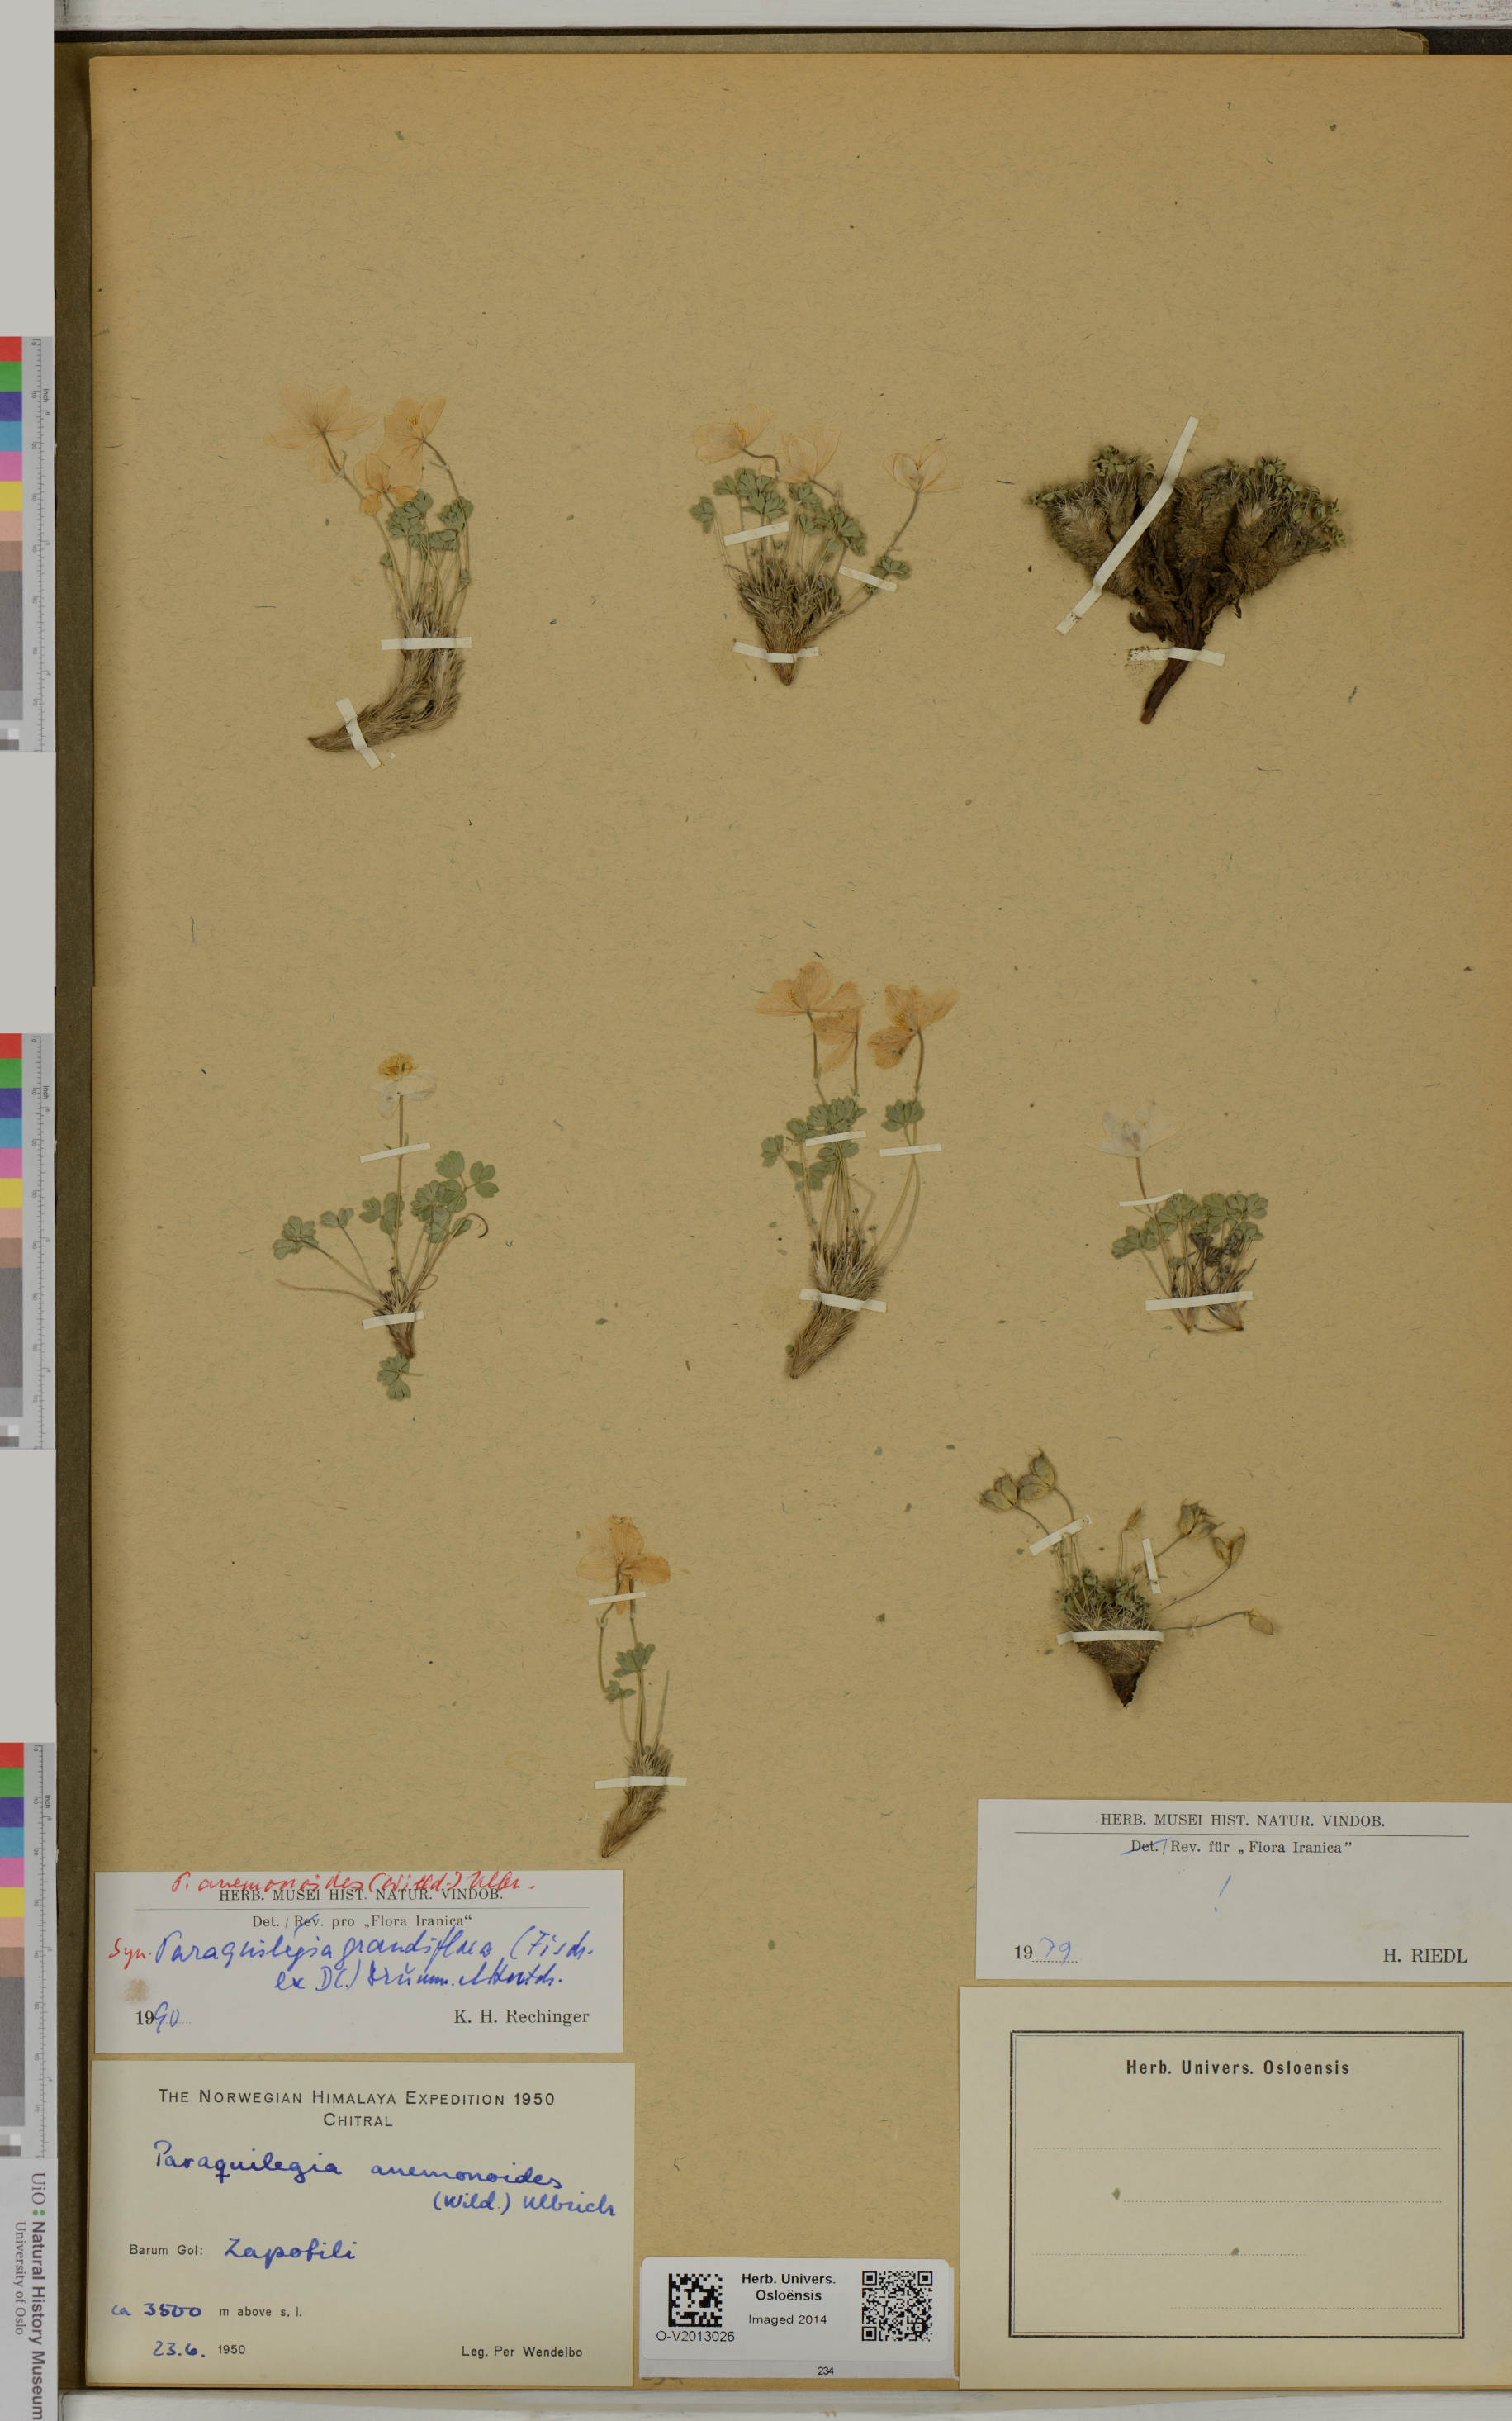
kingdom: Plantae
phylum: Tracheophyta
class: Magnoliopsida
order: Ranunculales
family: Ranunculaceae
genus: Paraquilegia
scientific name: Paraquilegia anemonoides
